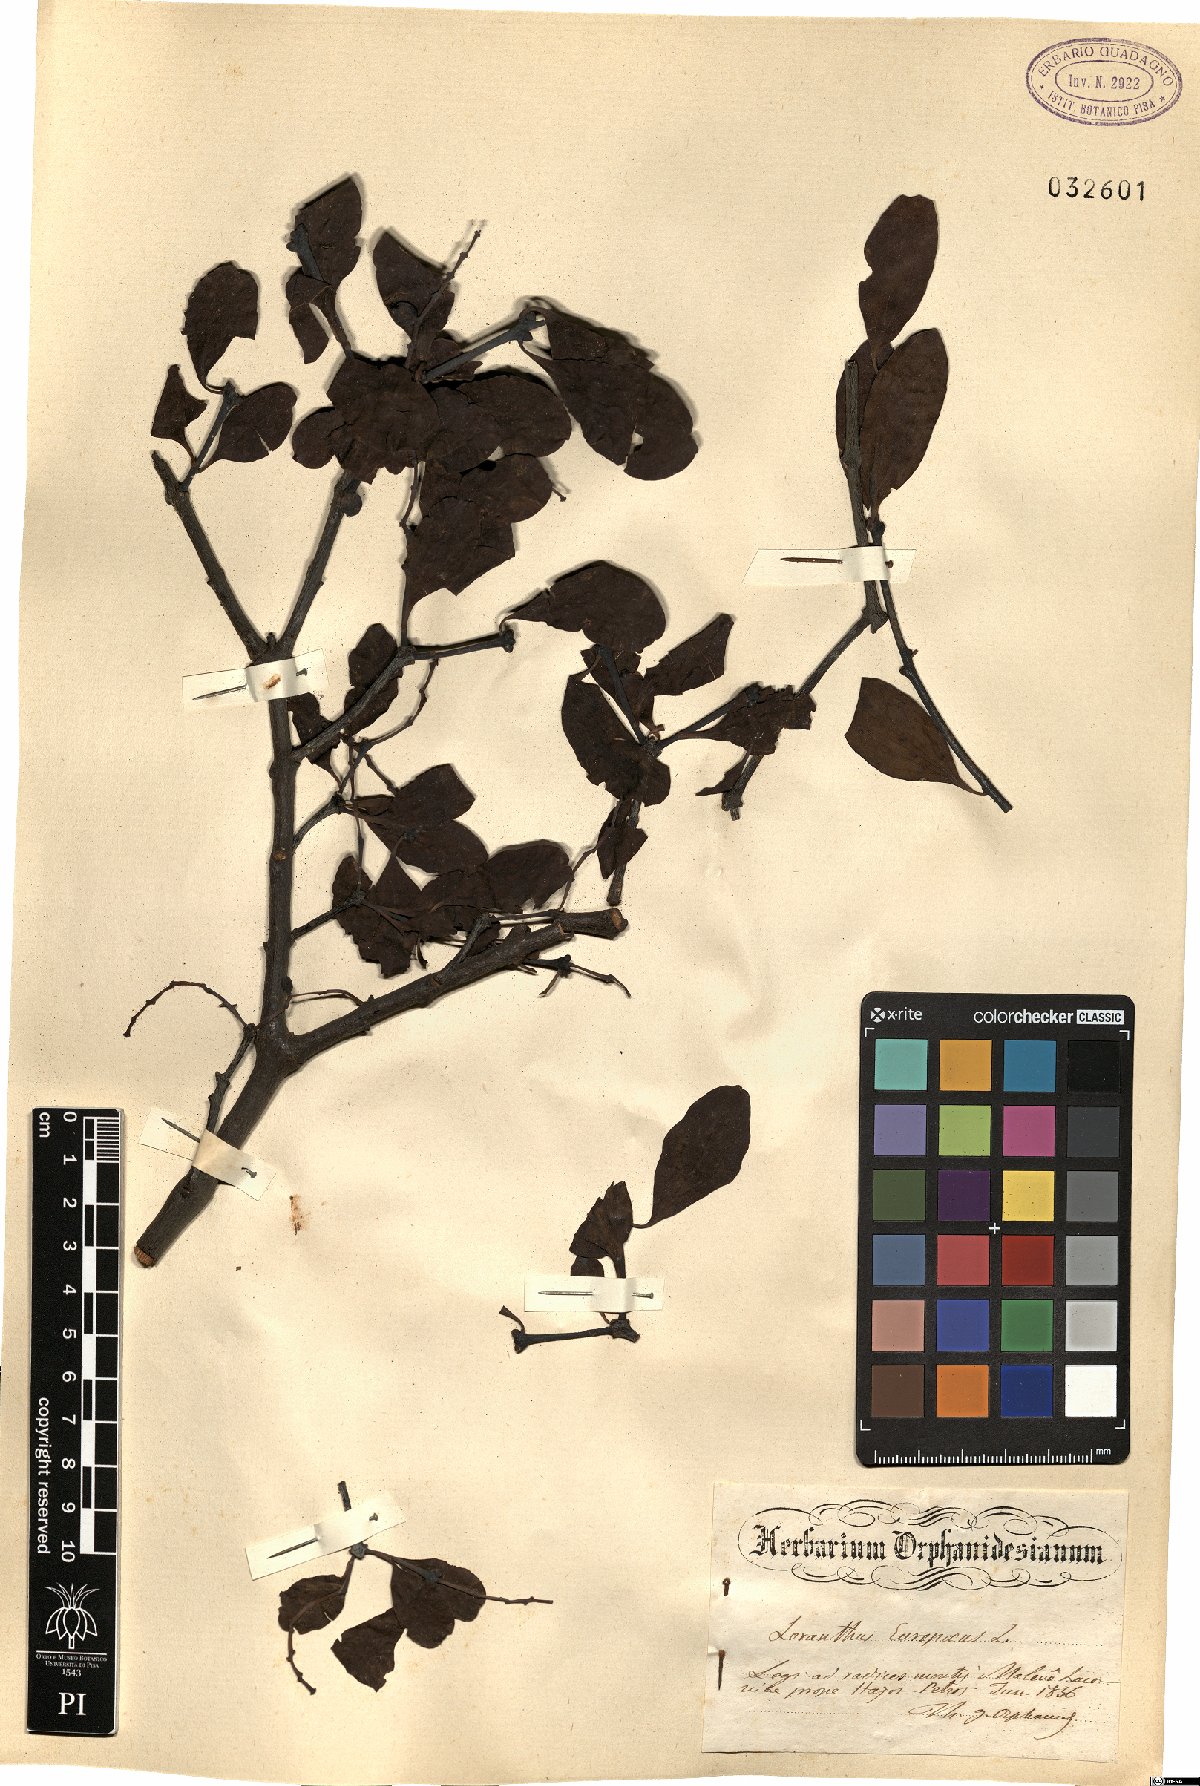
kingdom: Plantae
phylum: Tracheophyta
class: Magnoliopsida
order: Santalales
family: Loranthaceae
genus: Loranthus
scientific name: Loranthus europaeus
